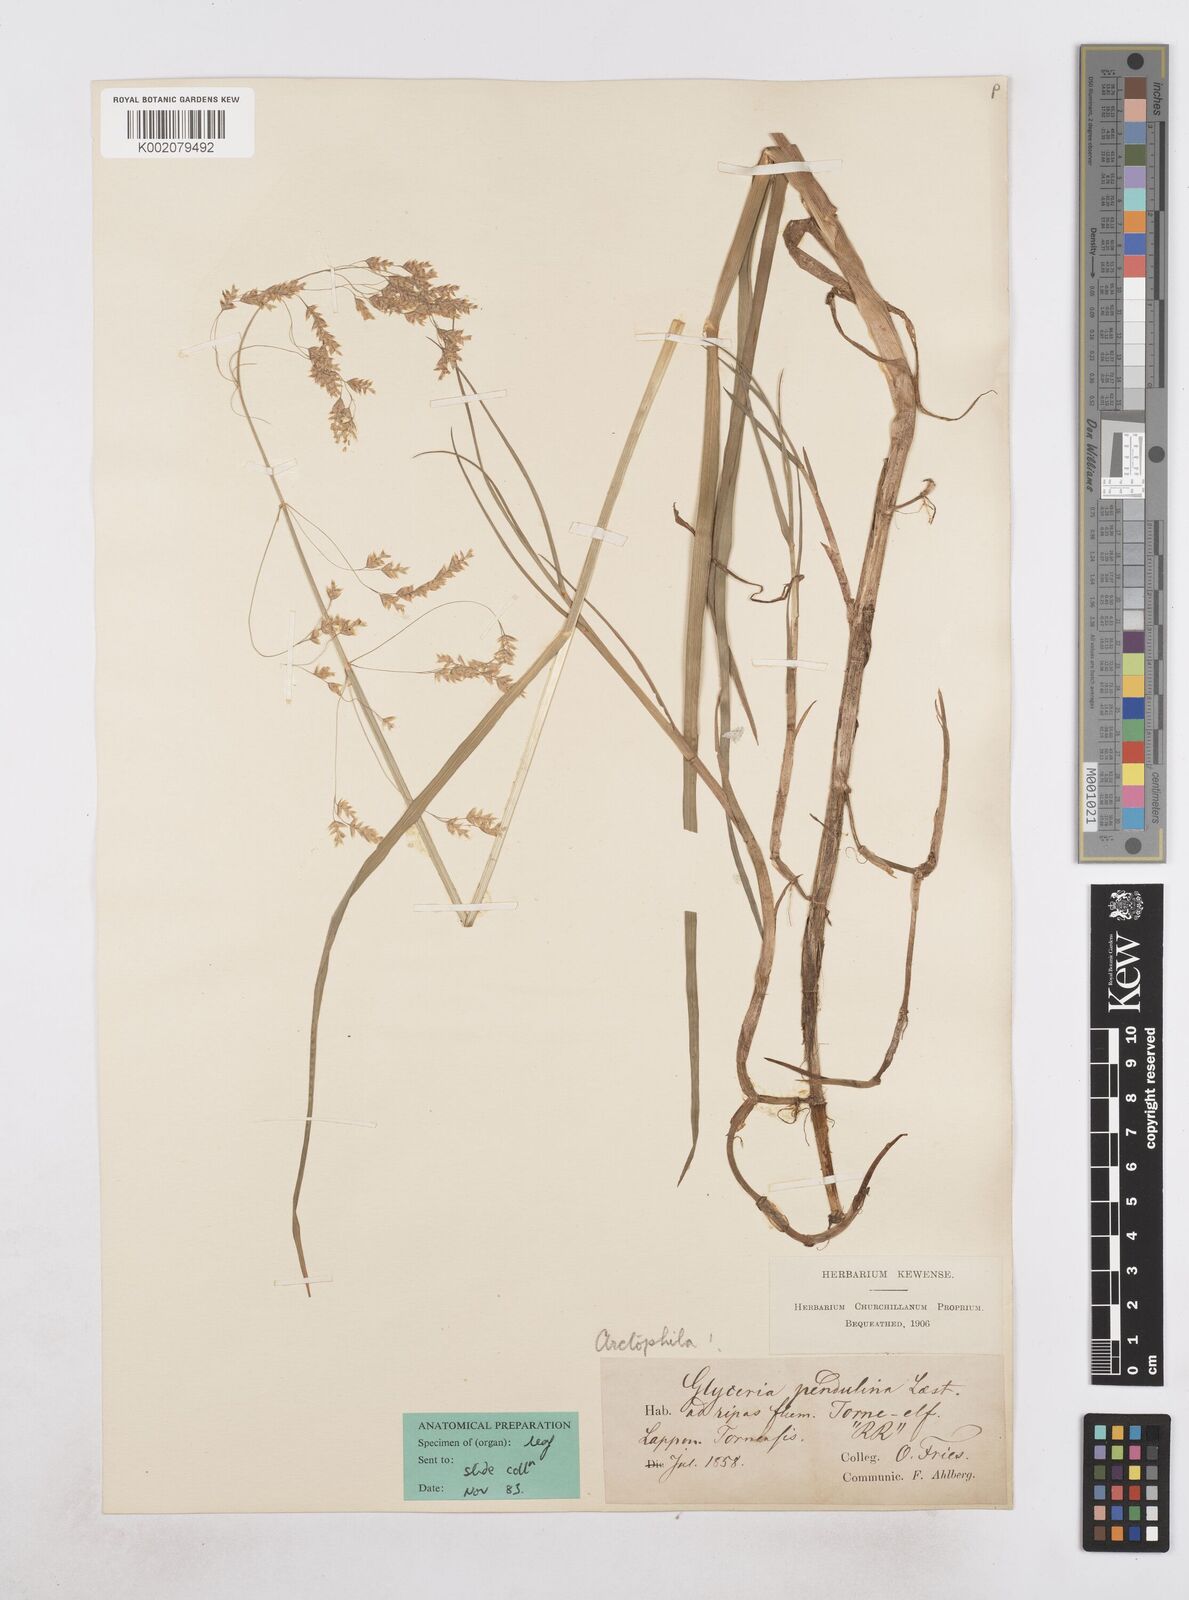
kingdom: Plantae
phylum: Tracheophyta
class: Liliopsida
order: Poales
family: Poaceae
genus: Dupontia
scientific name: Dupontia fulva
